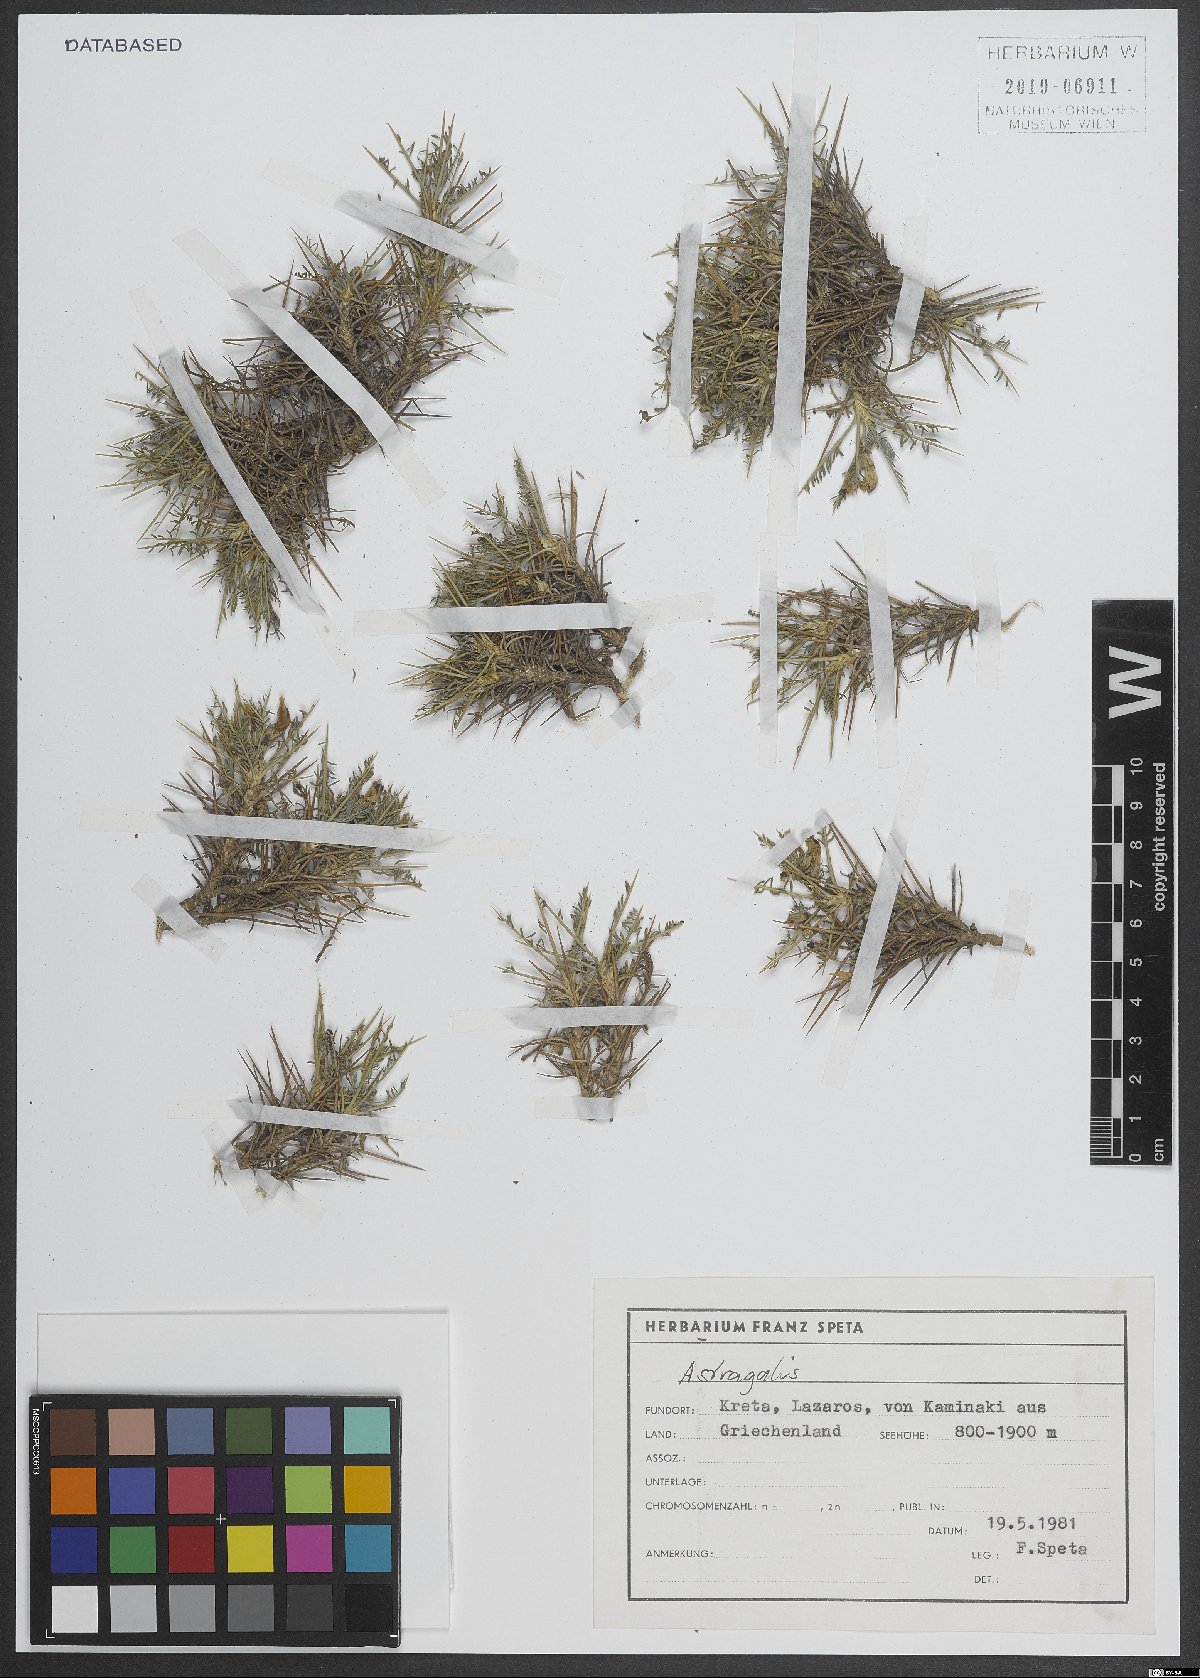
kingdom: Plantae
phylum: Tracheophyta
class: Magnoliopsida
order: Fabales
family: Fabaceae
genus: Astragalus
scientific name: Astragalus
